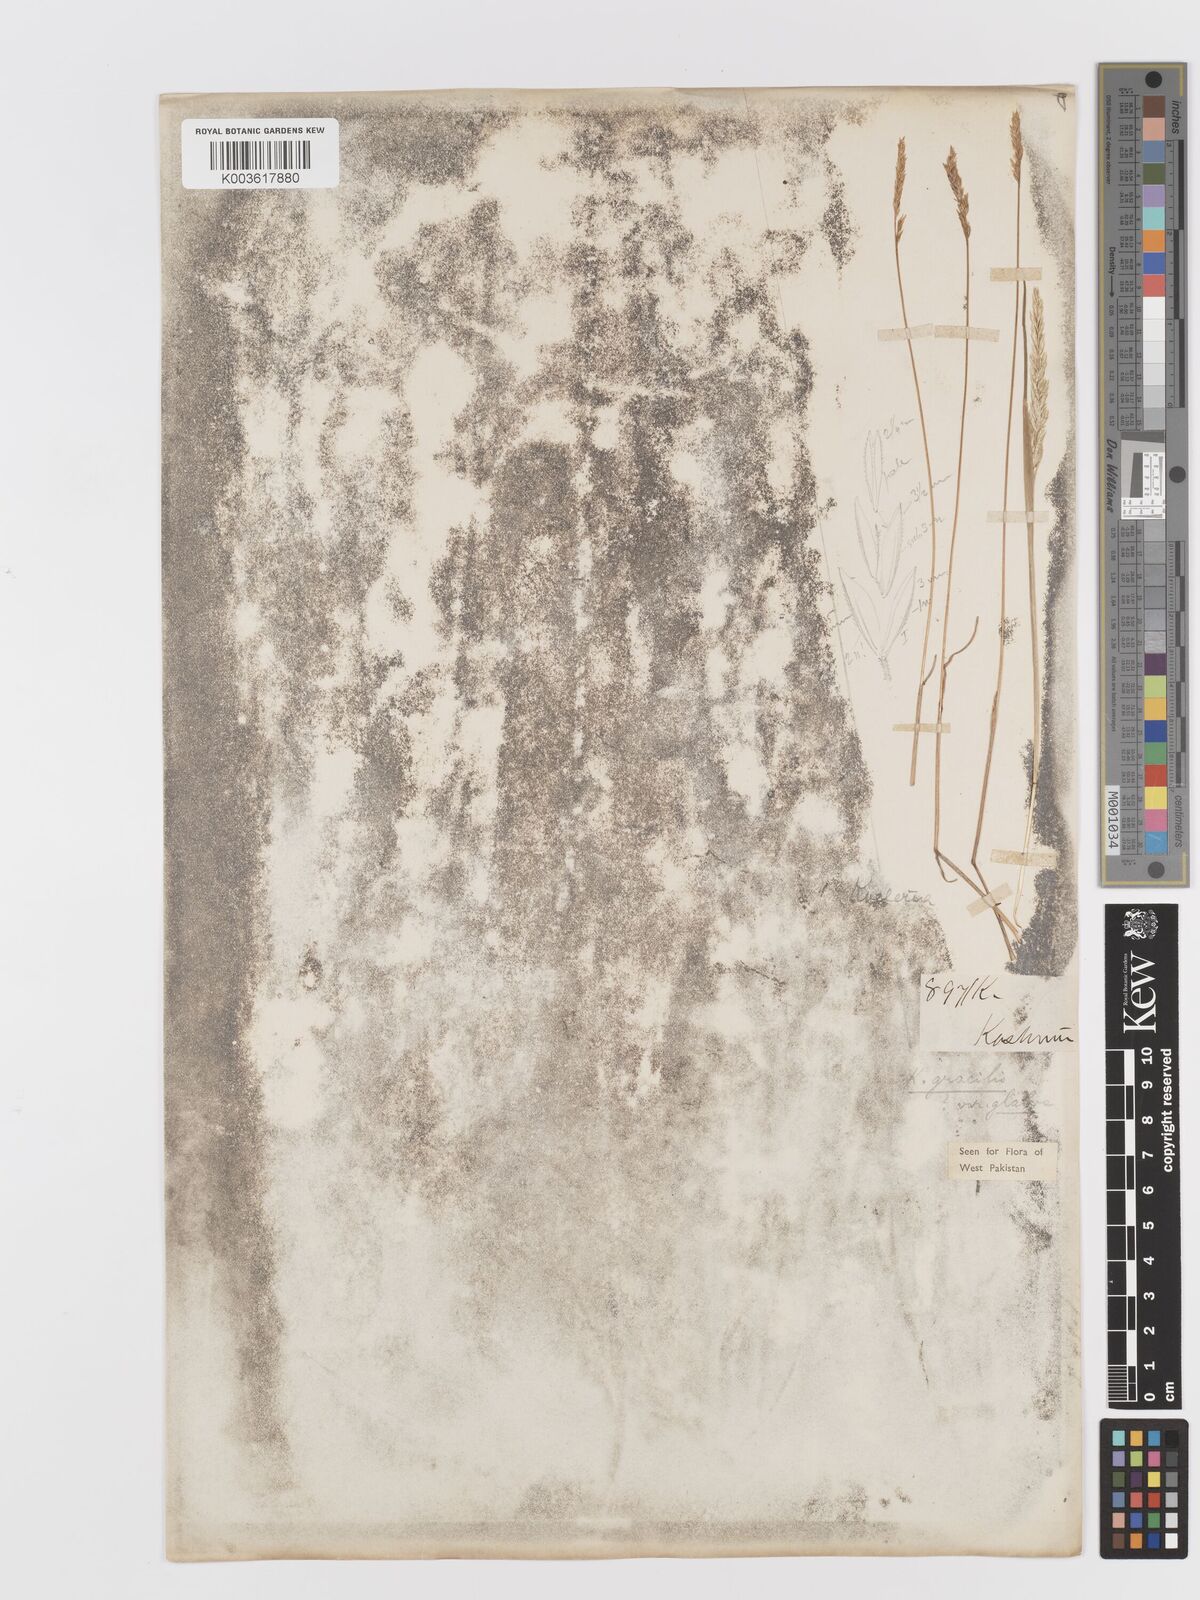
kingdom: Plantae
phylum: Tracheophyta
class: Liliopsida
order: Poales
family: Poaceae
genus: Koeleria
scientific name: Koeleria
